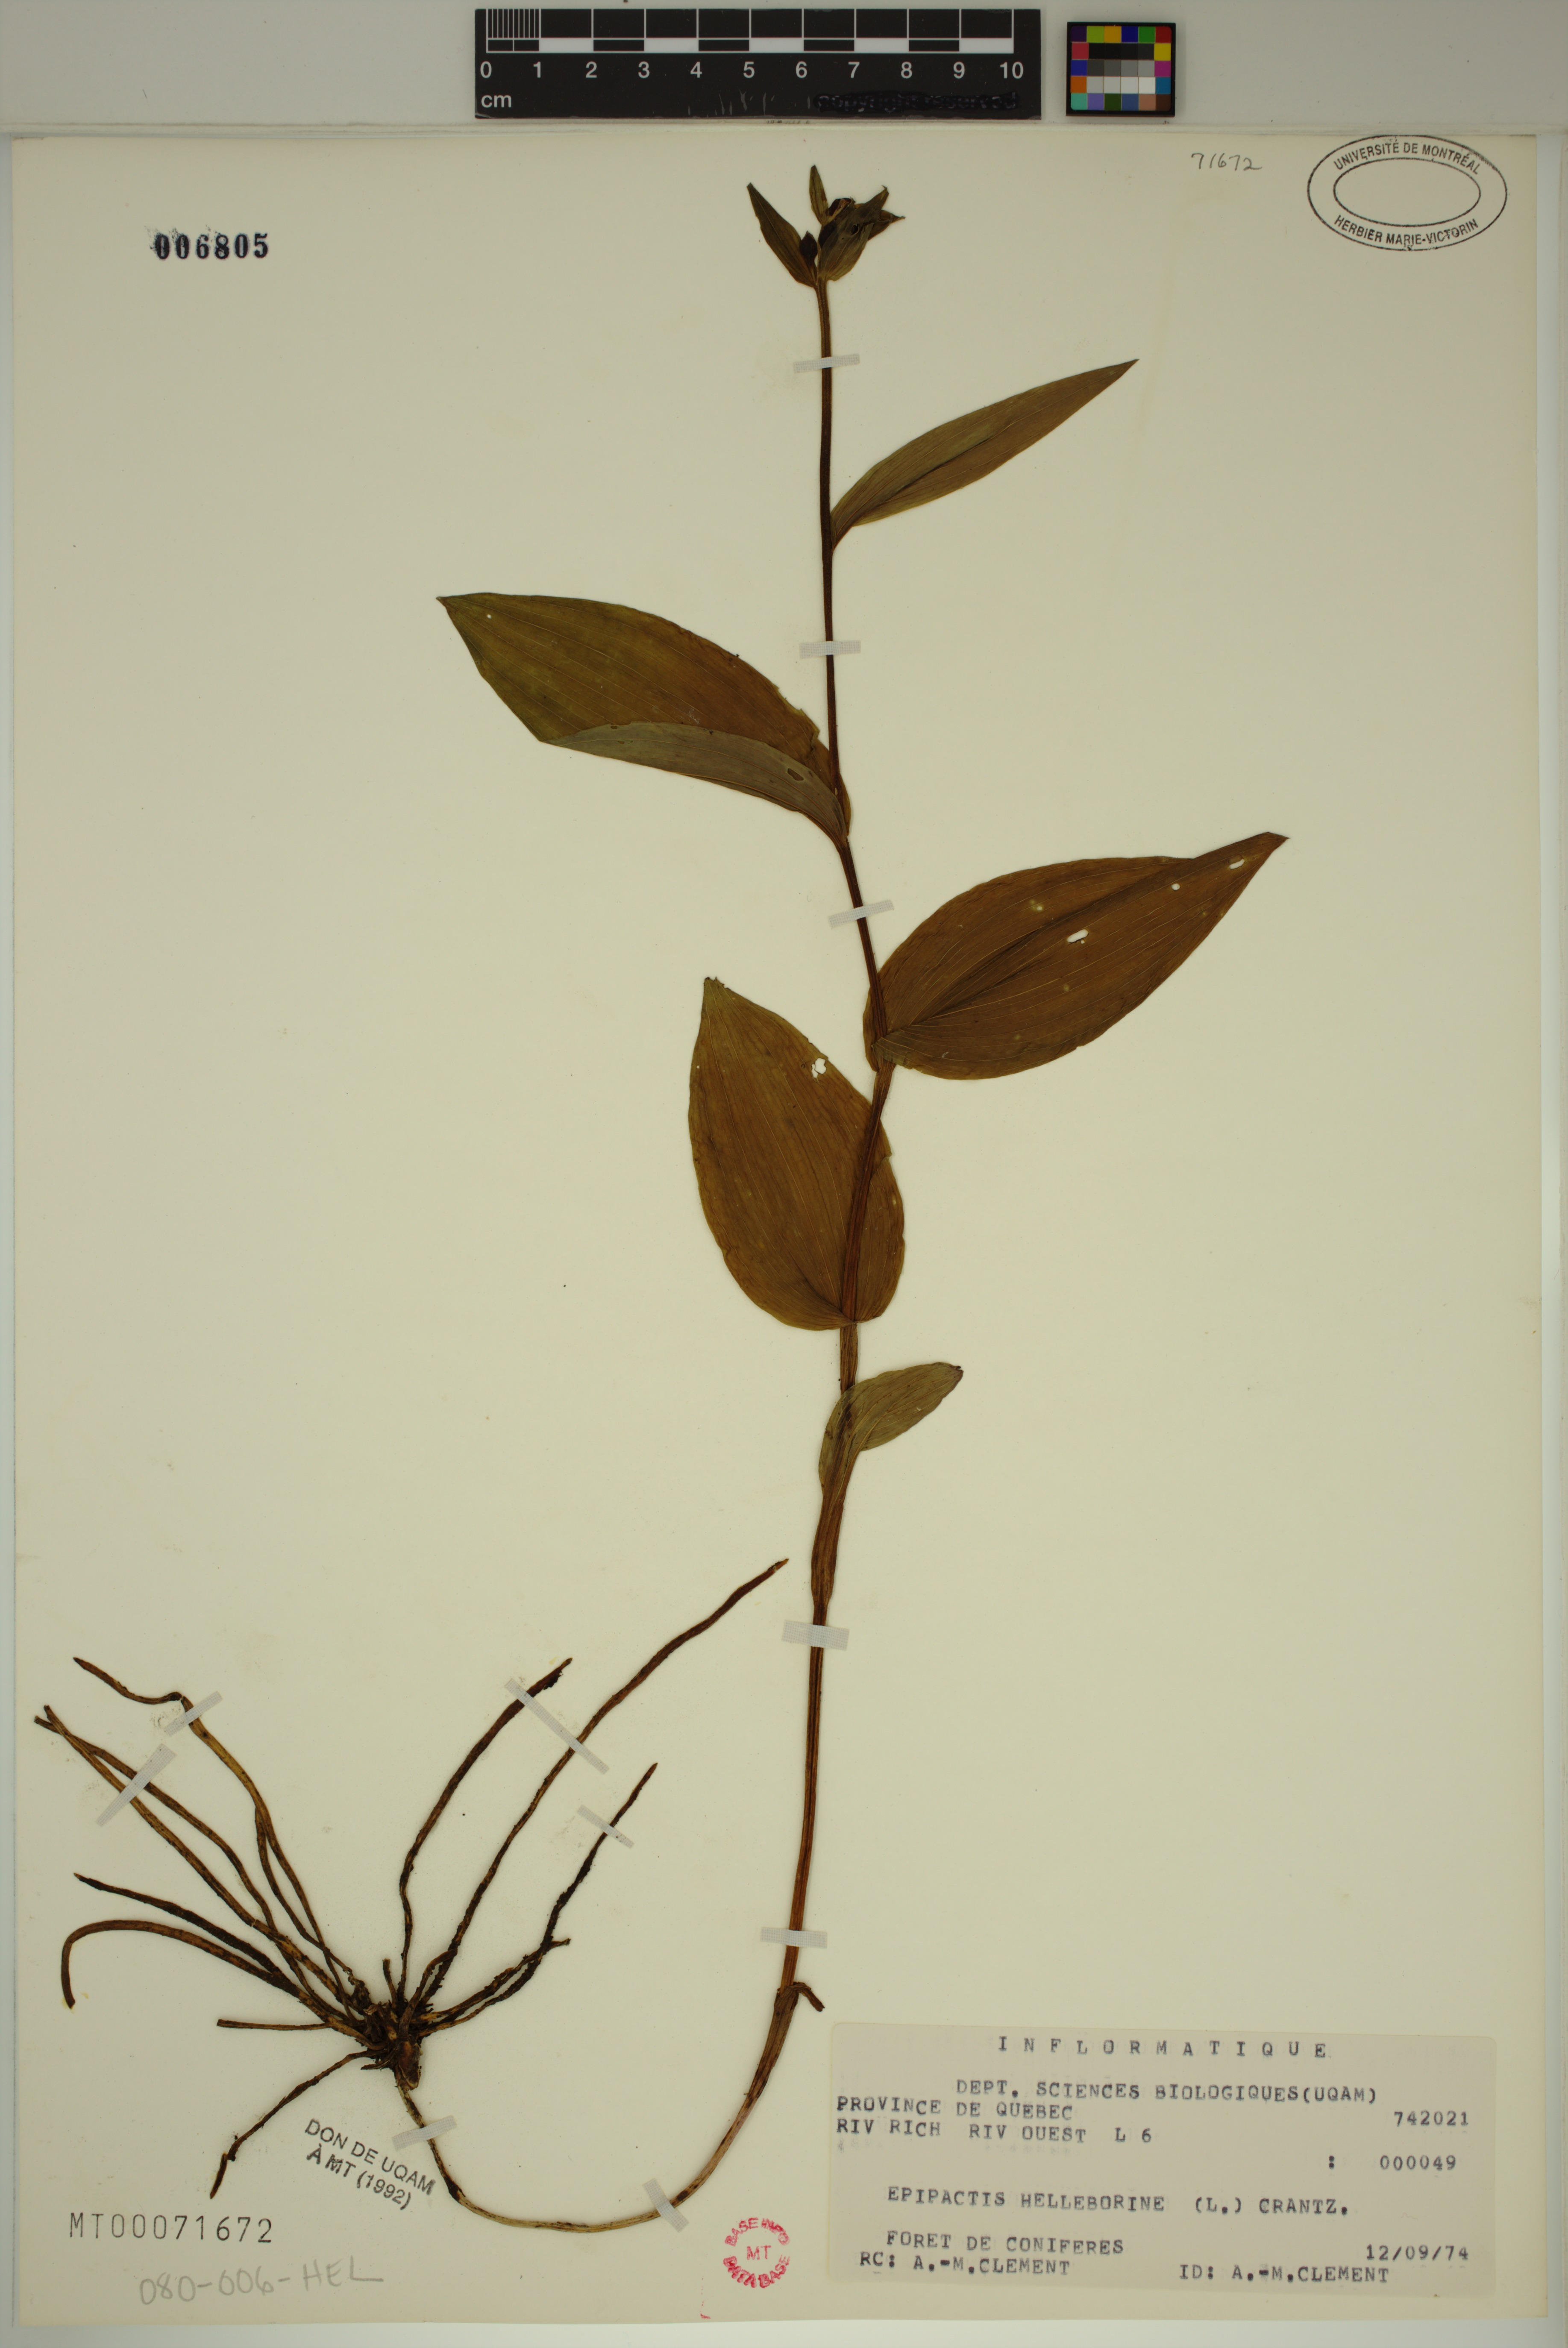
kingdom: Plantae
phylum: Tracheophyta
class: Liliopsida
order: Asparagales
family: Orchidaceae
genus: Epipactis
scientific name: Epipactis helleborine
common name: Broad-leaved helleborine
